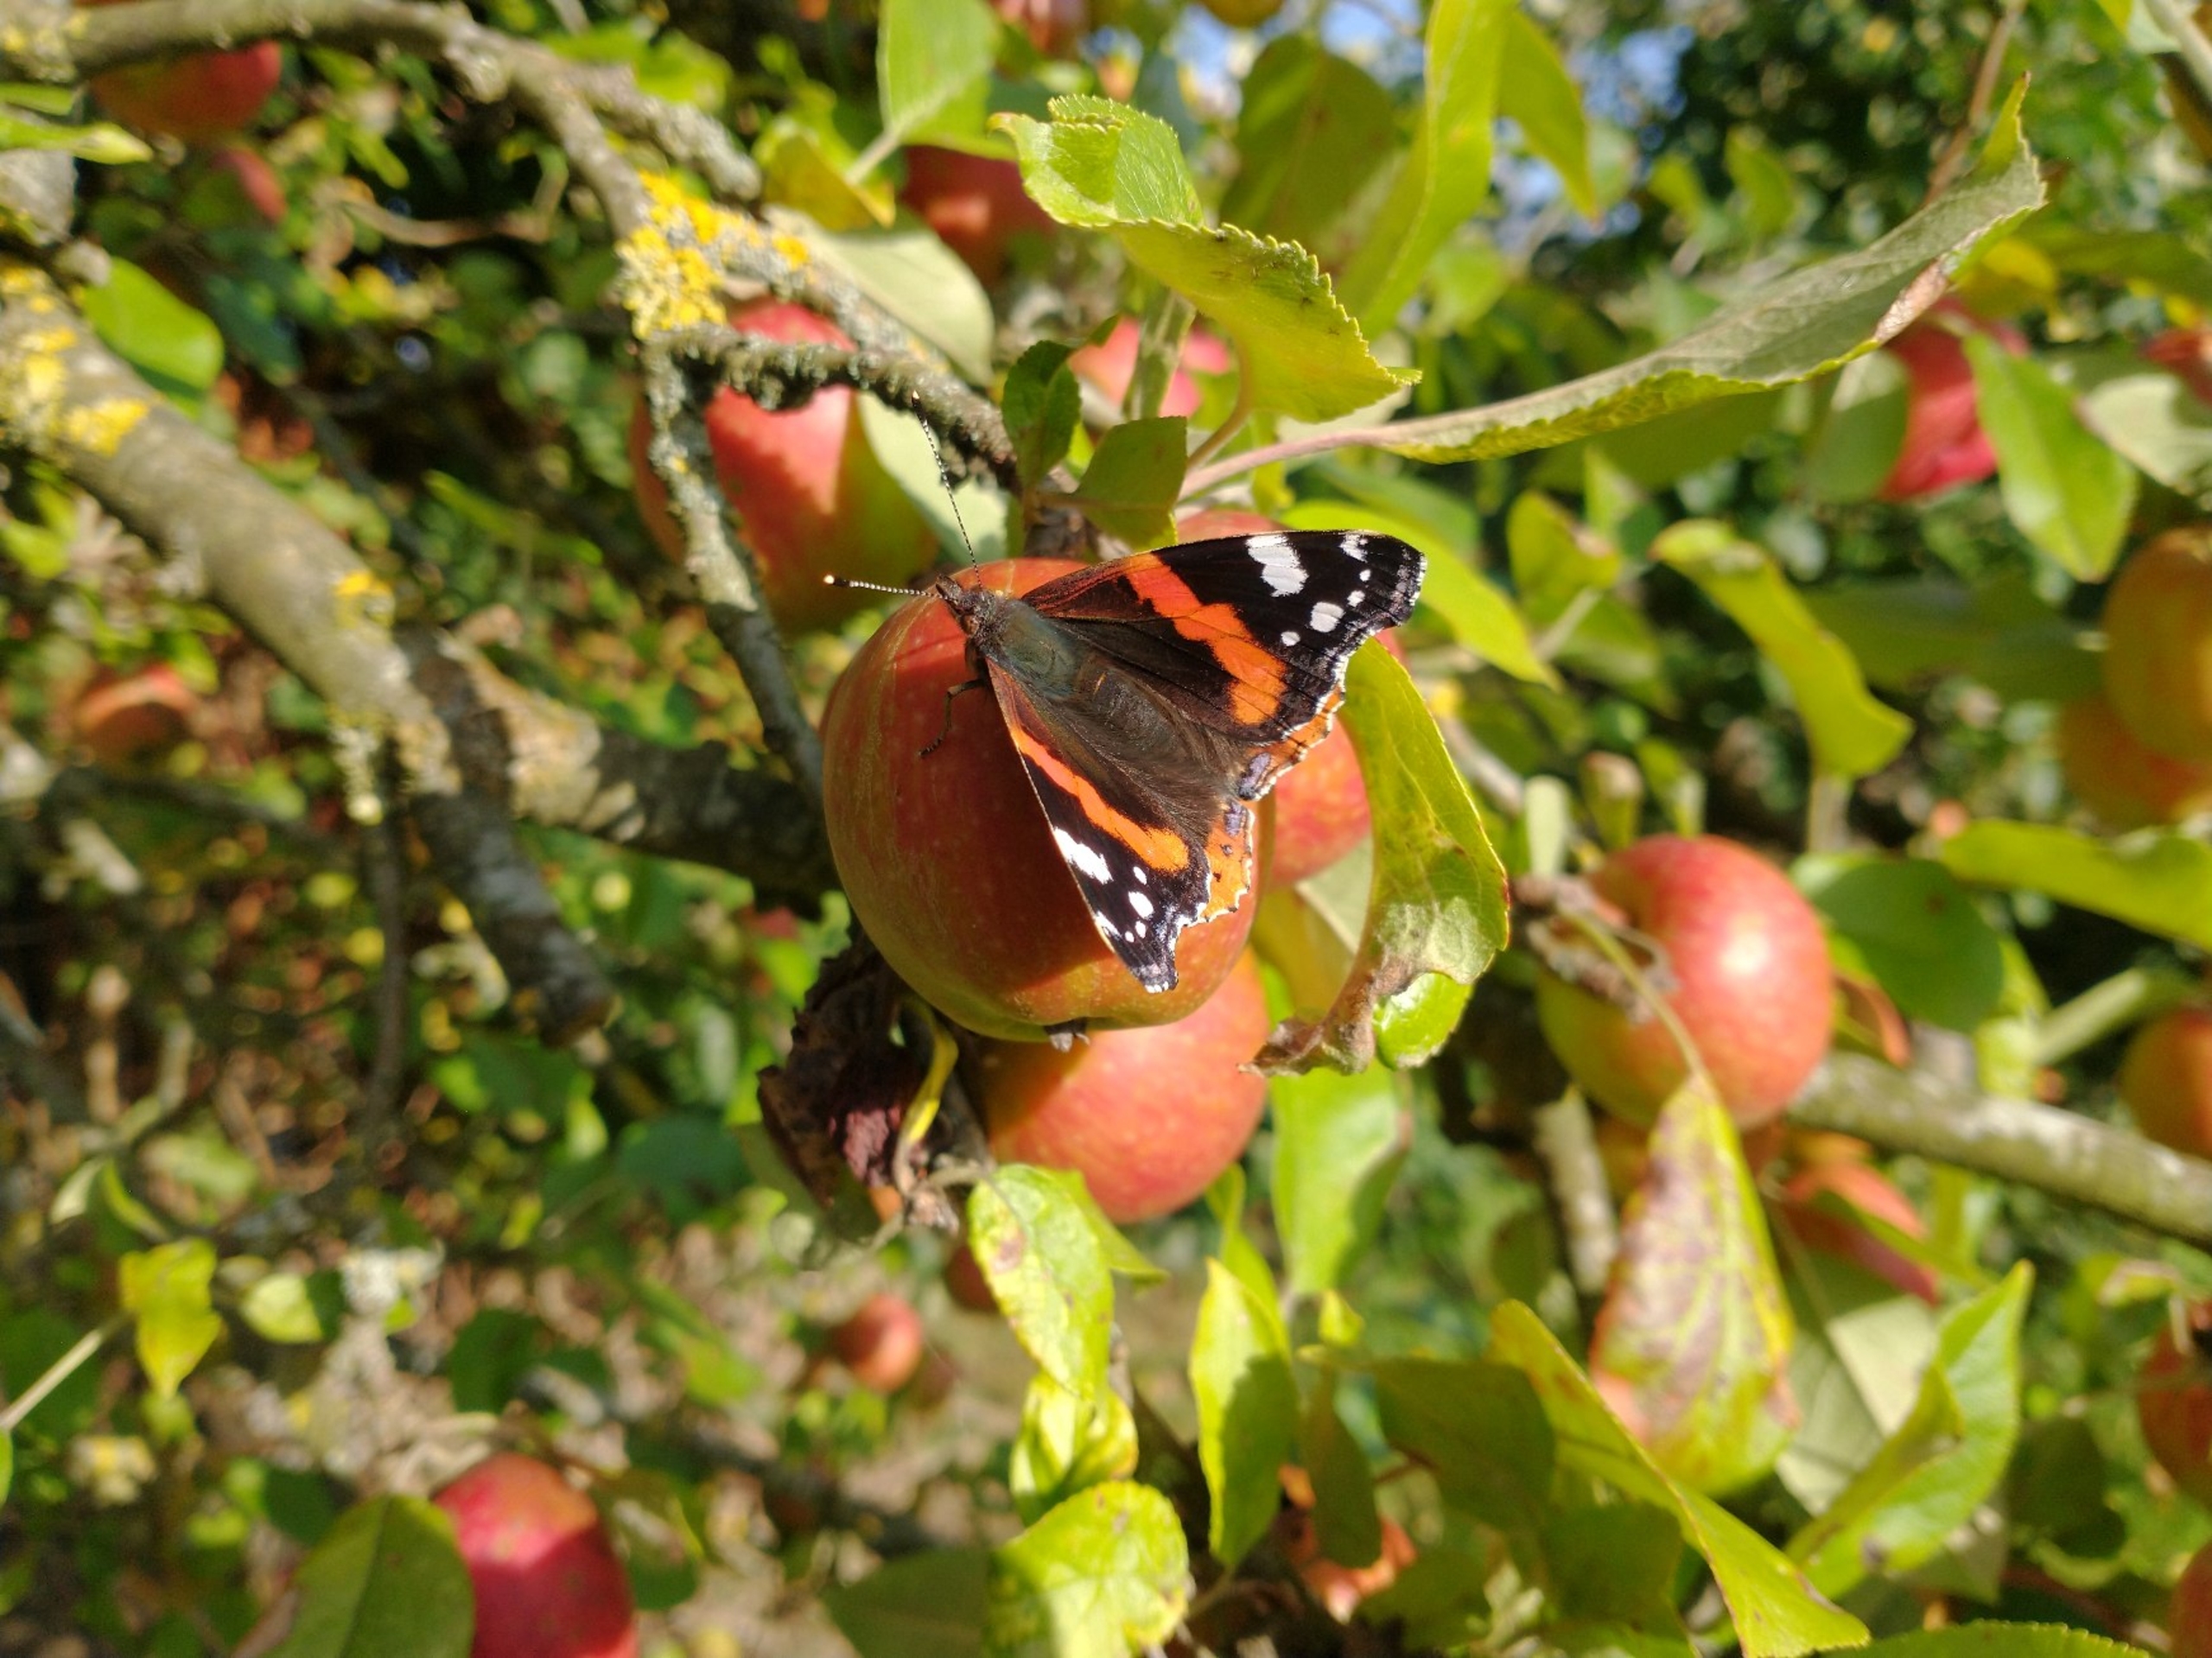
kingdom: Animalia
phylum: Arthropoda
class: Insecta
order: Lepidoptera
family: Nymphalidae
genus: Vanessa
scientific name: Vanessa atalanta
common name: Admiral
